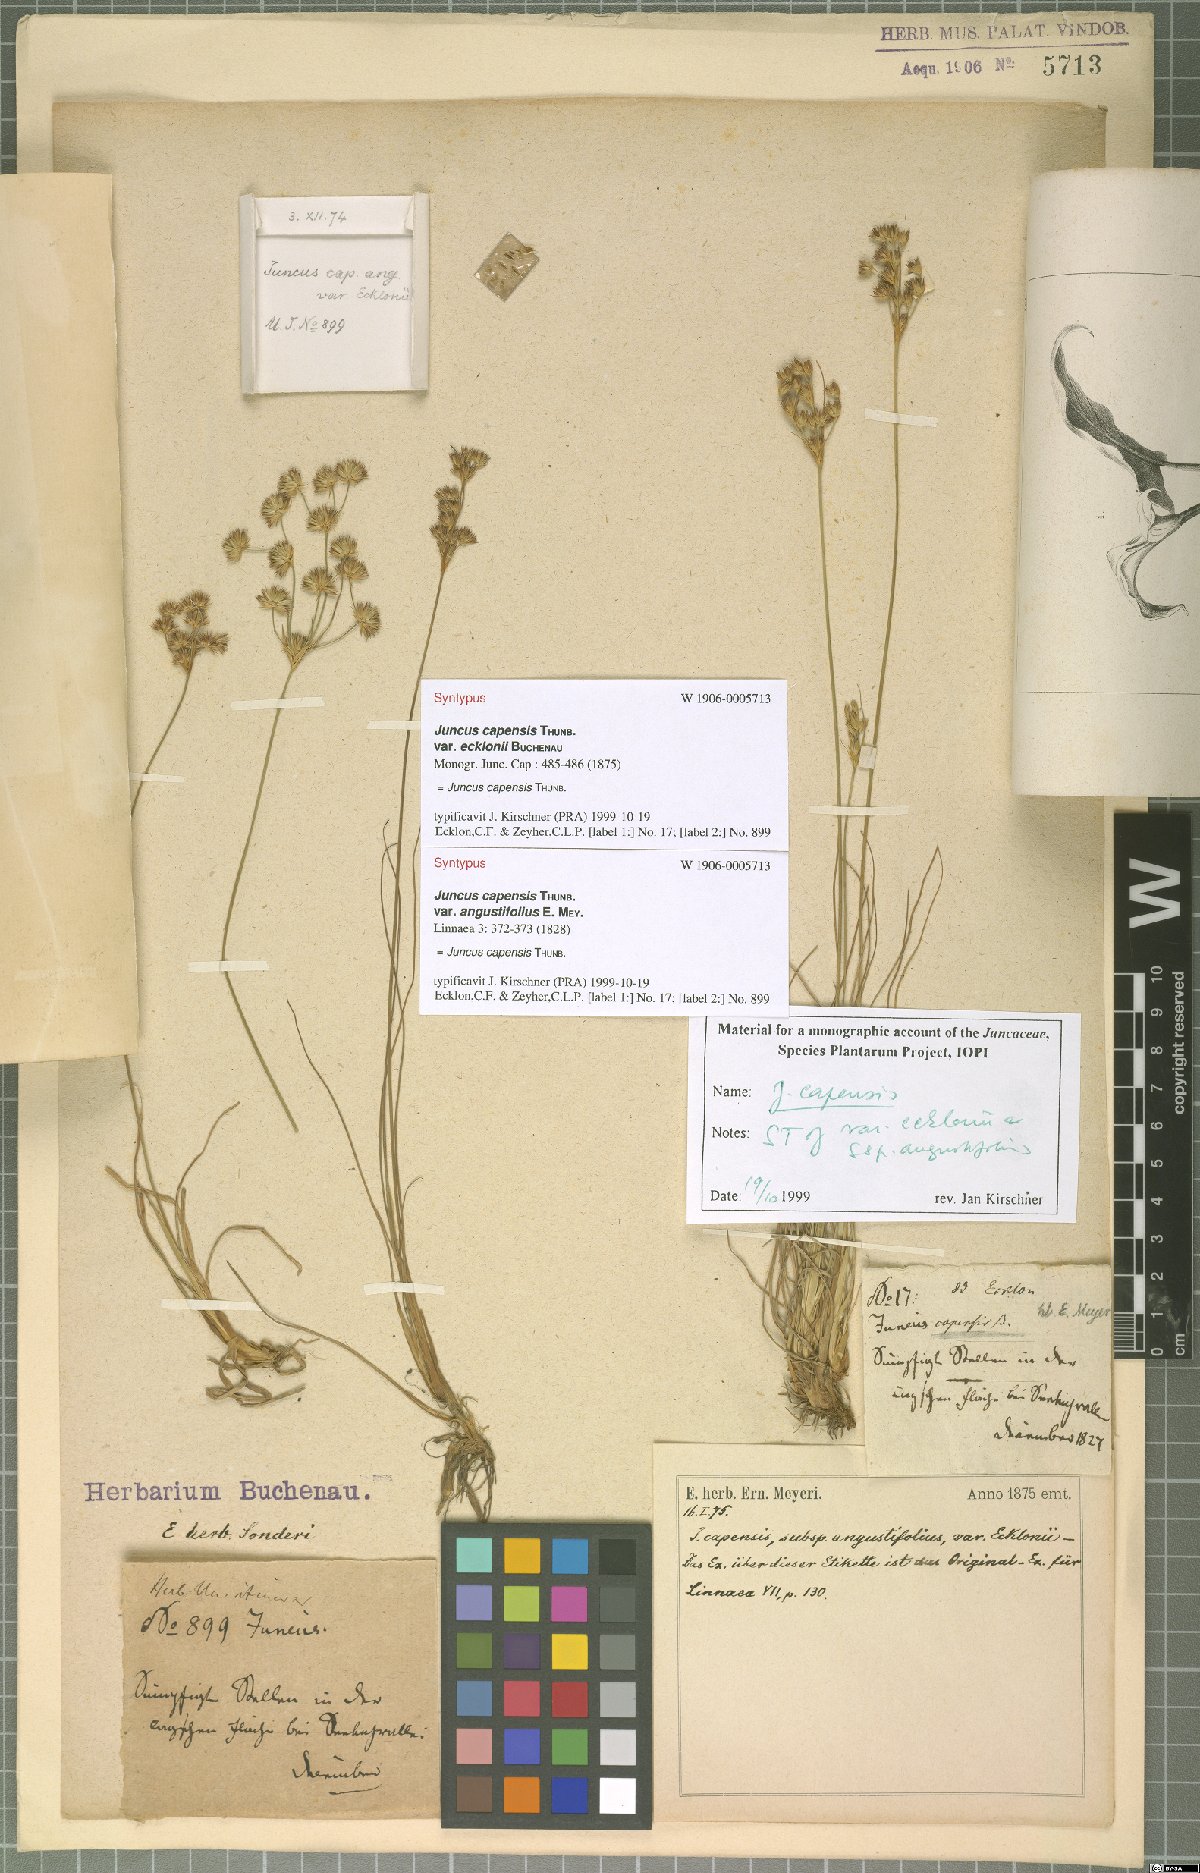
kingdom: Plantae
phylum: Tracheophyta
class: Liliopsida
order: Poales
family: Juncaceae
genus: Juncus
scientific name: Juncus capensis
